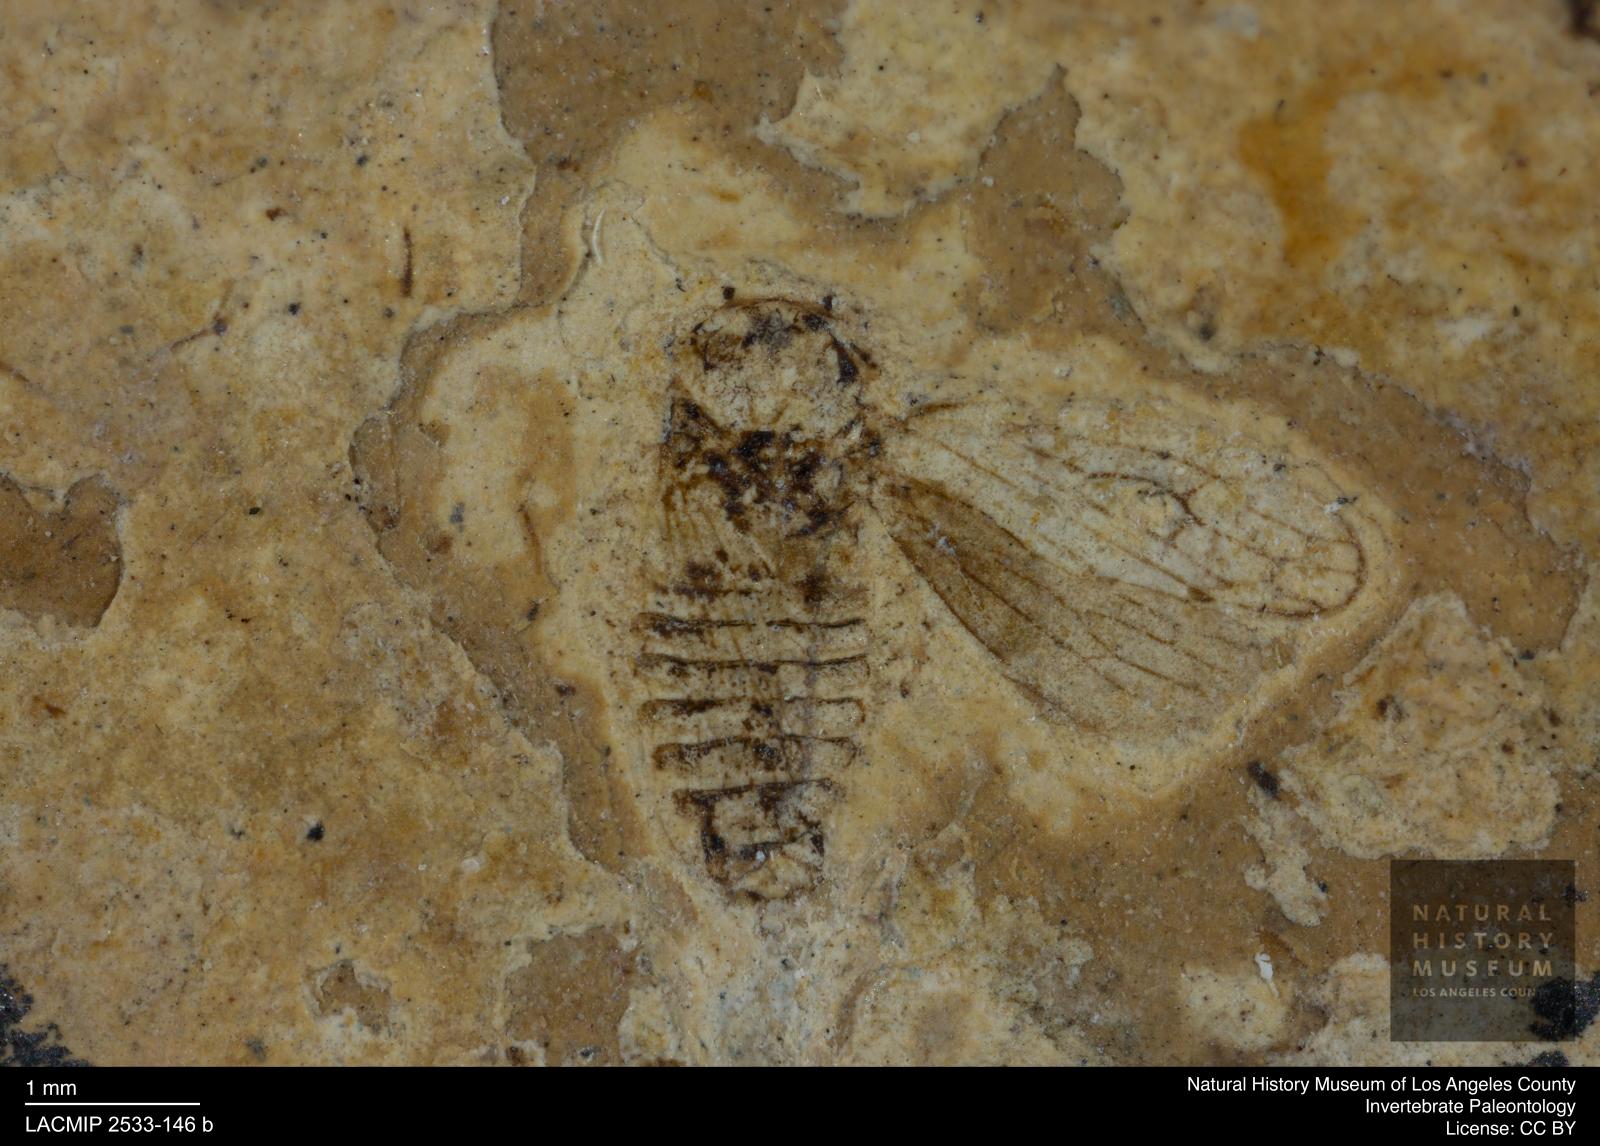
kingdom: Animalia
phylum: Arthropoda
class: Insecta
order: Hemiptera
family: Cicadellidae
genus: Iassus
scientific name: Iassus sepultus
